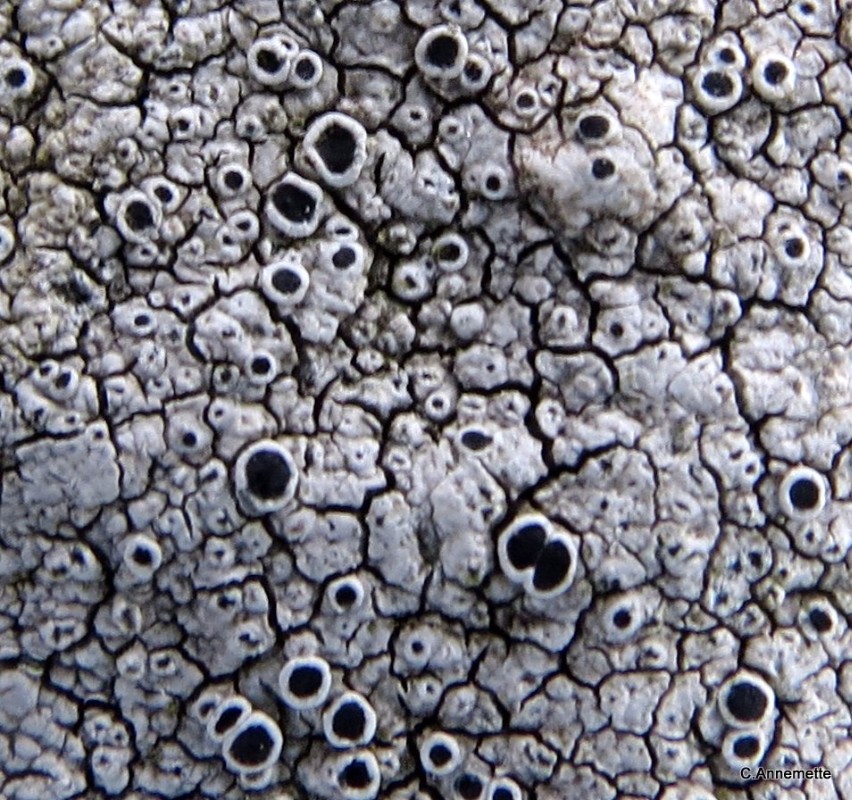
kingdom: Fungi
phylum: Ascomycota
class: Lecanoromycetes
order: Lecanorales
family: Tephromelataceae
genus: Tephromela
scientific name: Tephromela atra
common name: sortfrugtet kantskivelav
